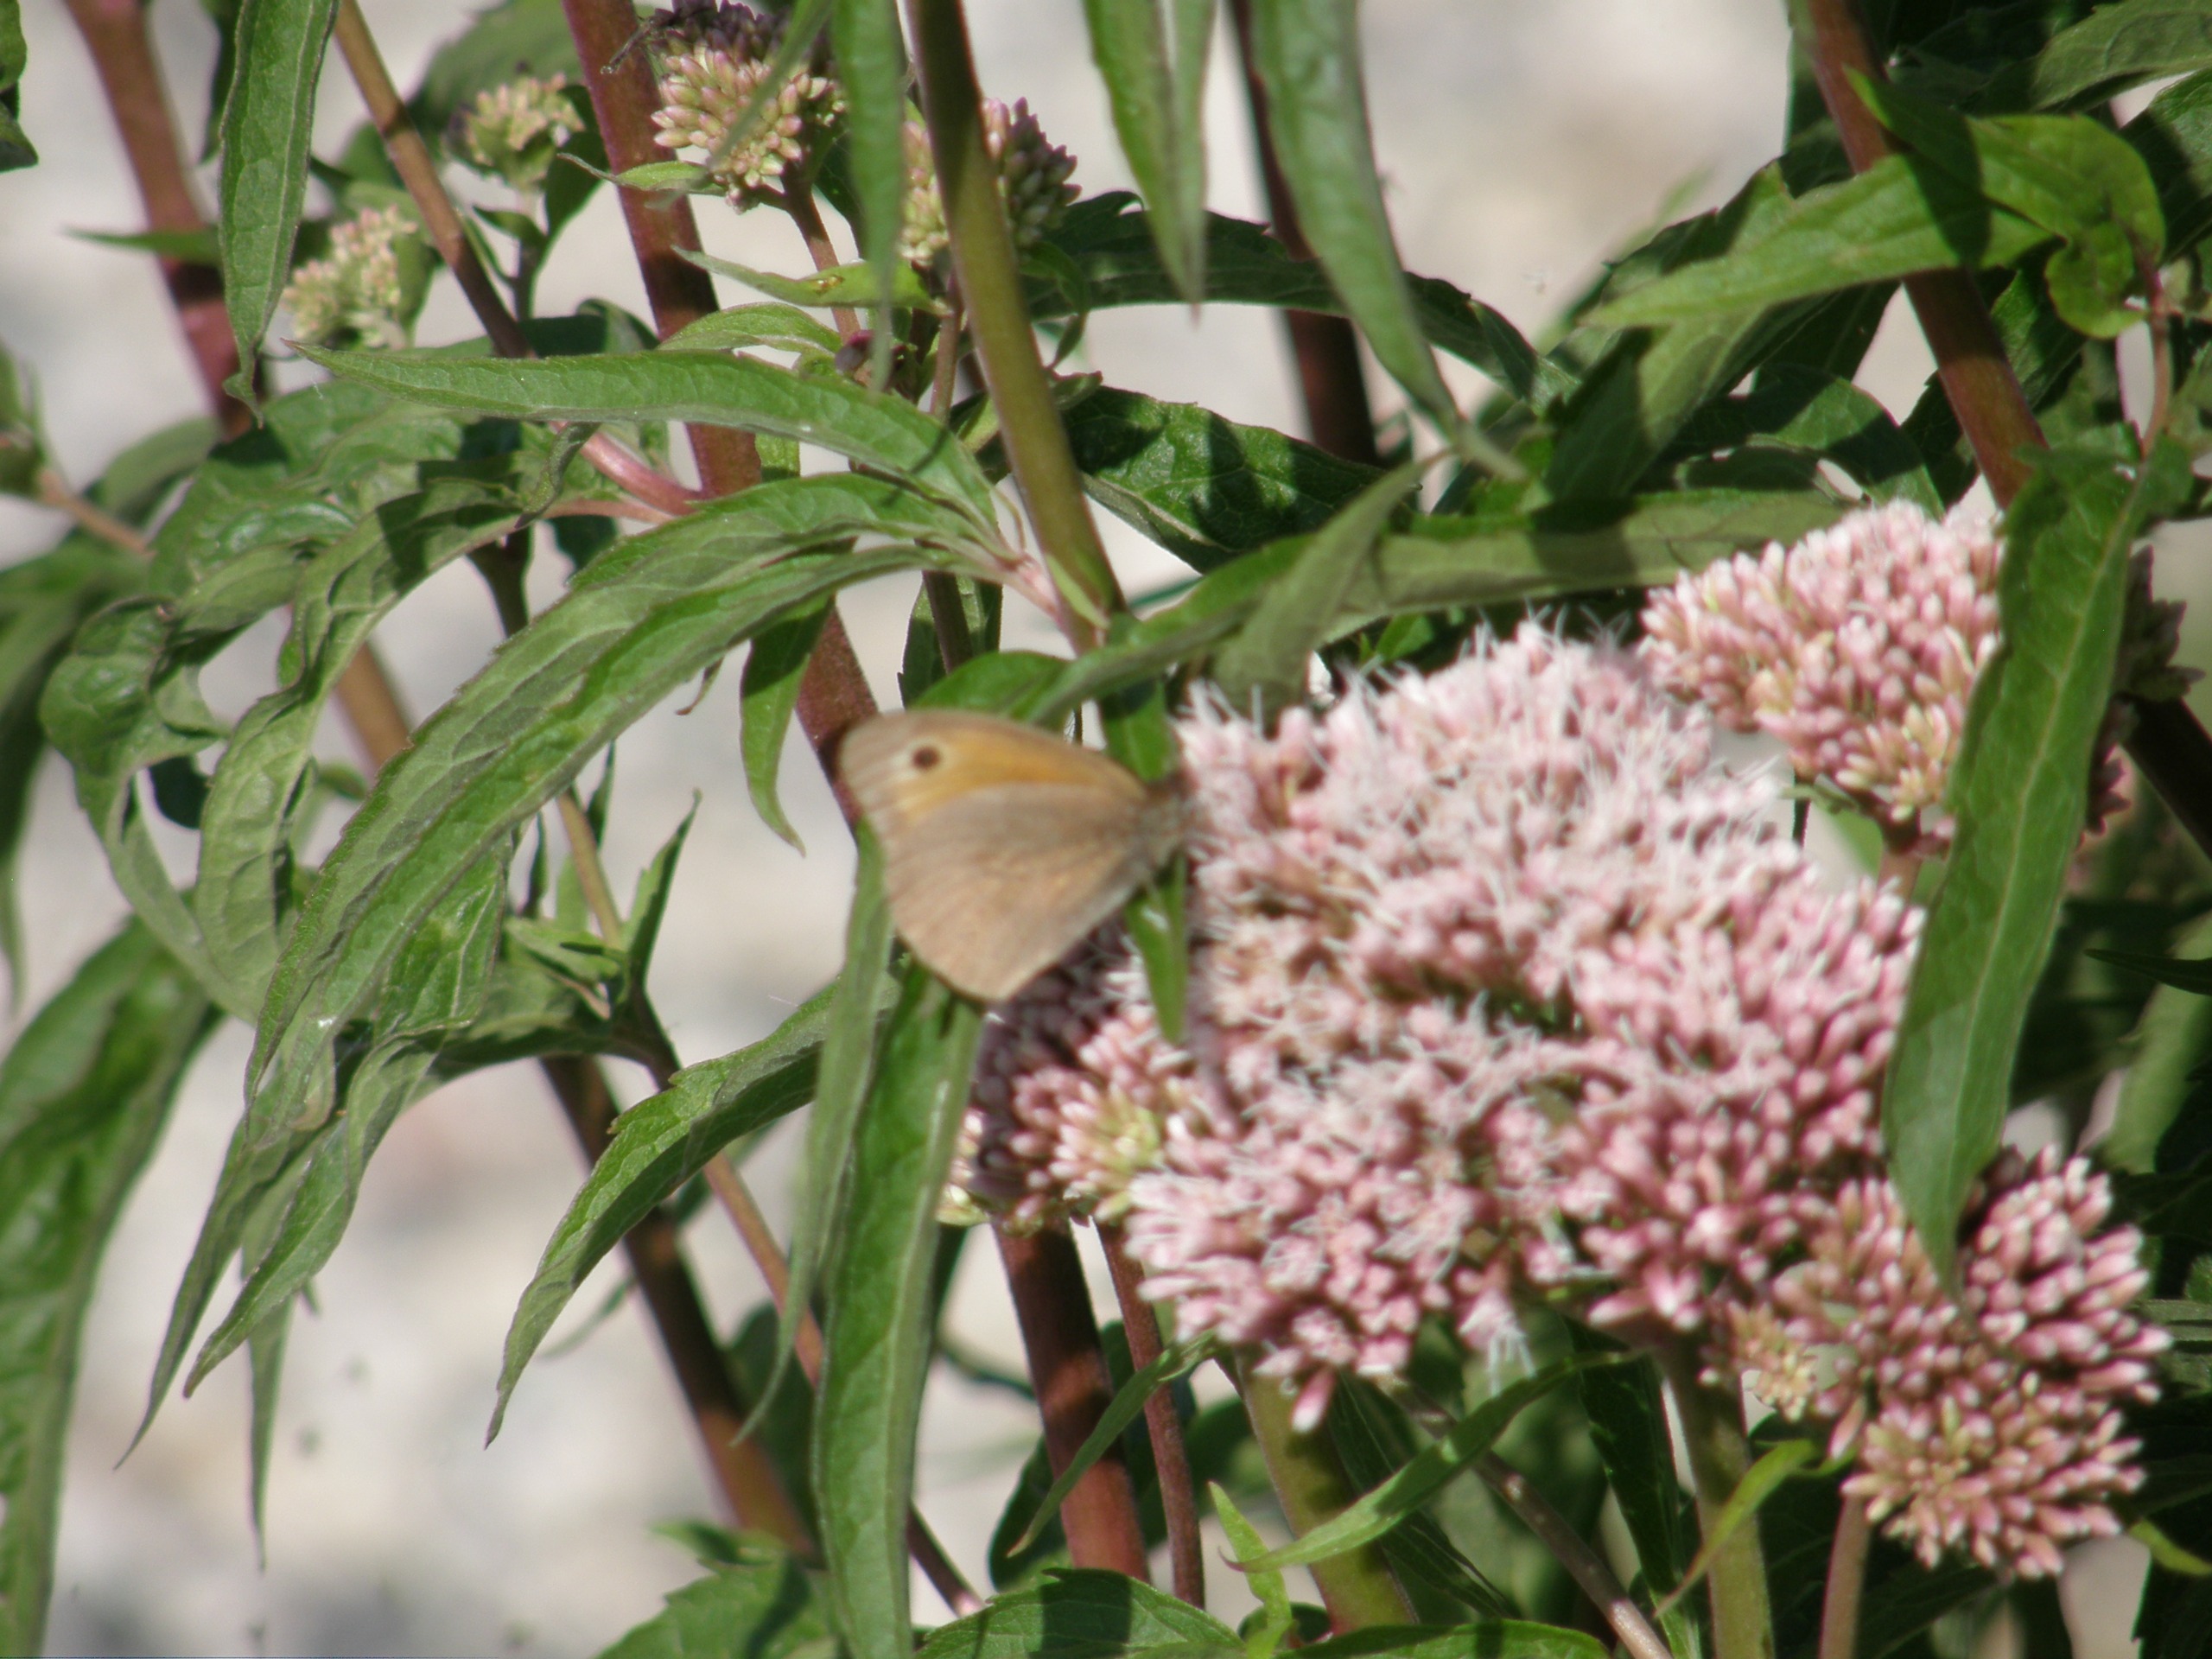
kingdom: Plantae
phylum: Tracheophyta
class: Magnoliopsida
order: Asterales
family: Asteraceae
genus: Eupatorium
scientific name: Eupatorium cannabinum
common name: Hjortetrøst
